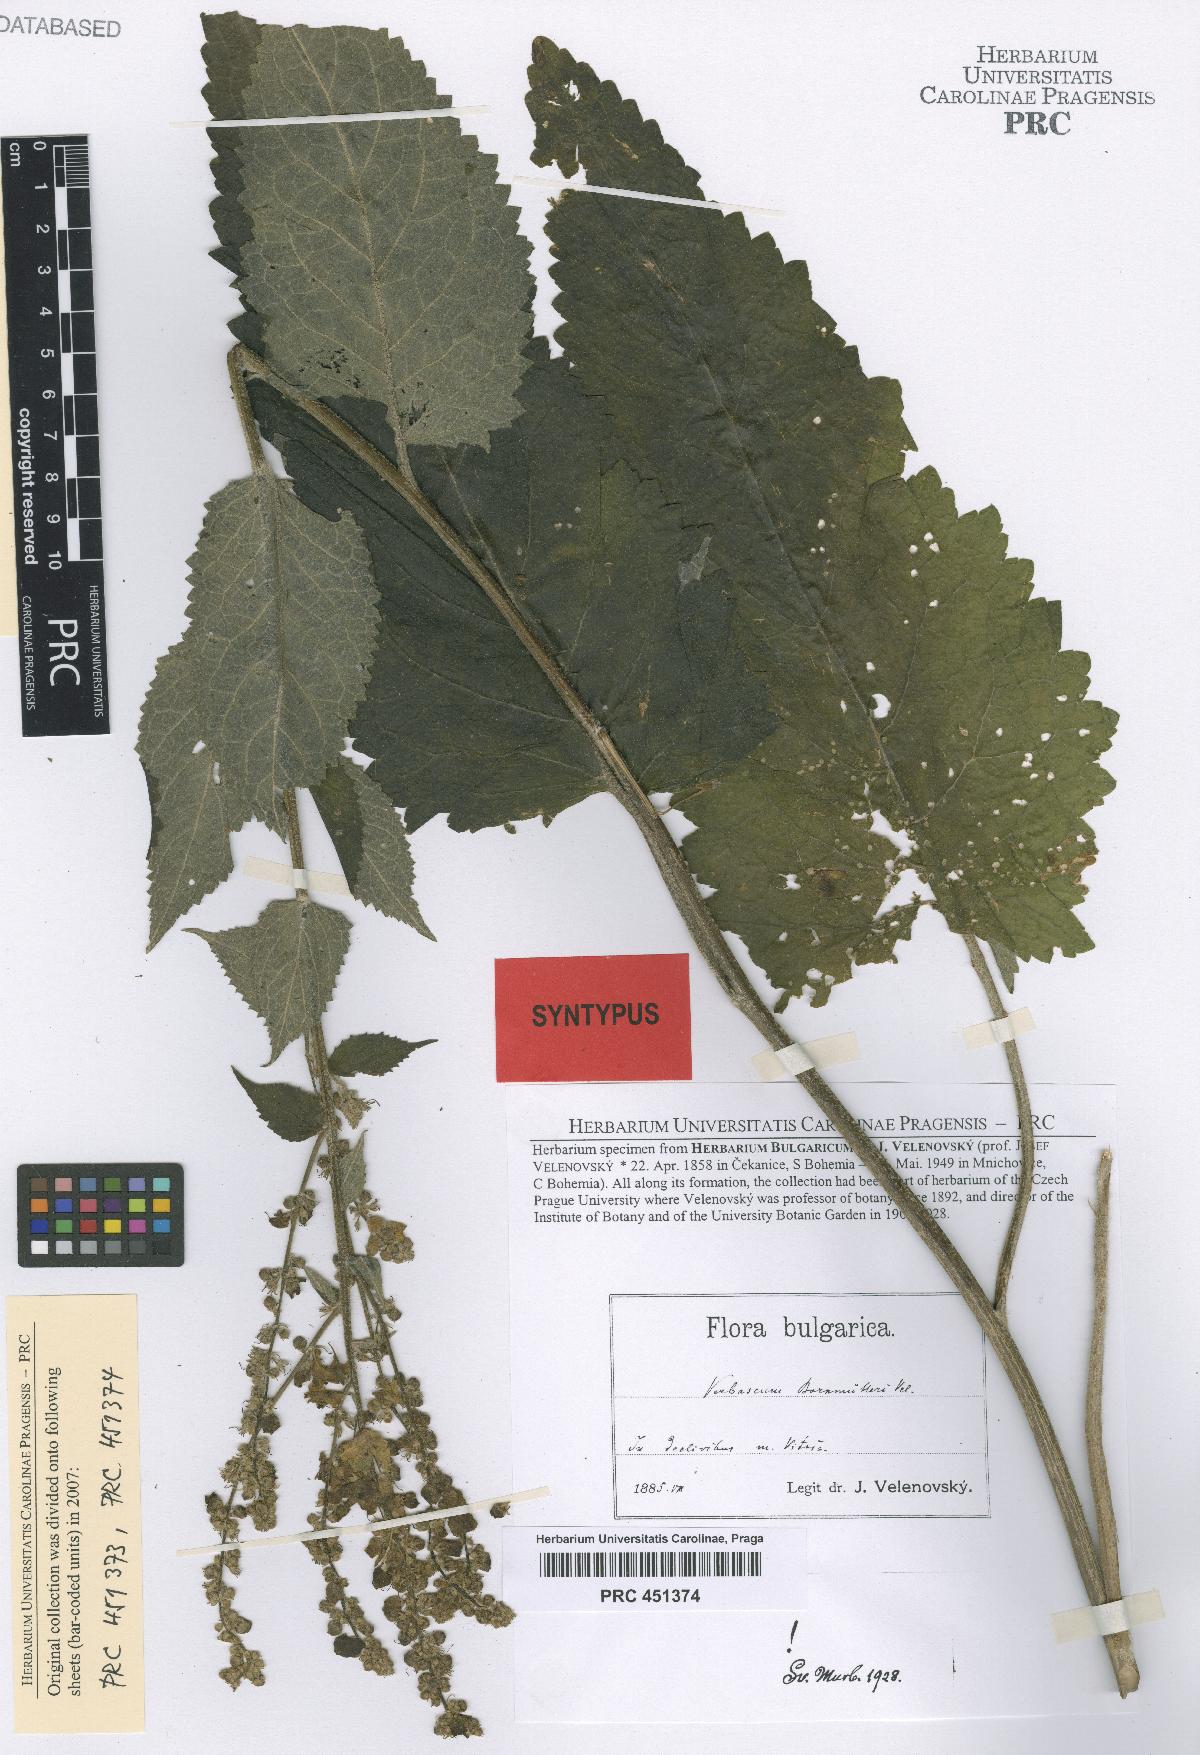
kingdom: Plantae
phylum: Tracheophyta
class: Magnoliopsida
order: Lamiales
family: Scrophulariaceae
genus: Verbascum
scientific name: Verbascum nigrum
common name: Dark mullein
